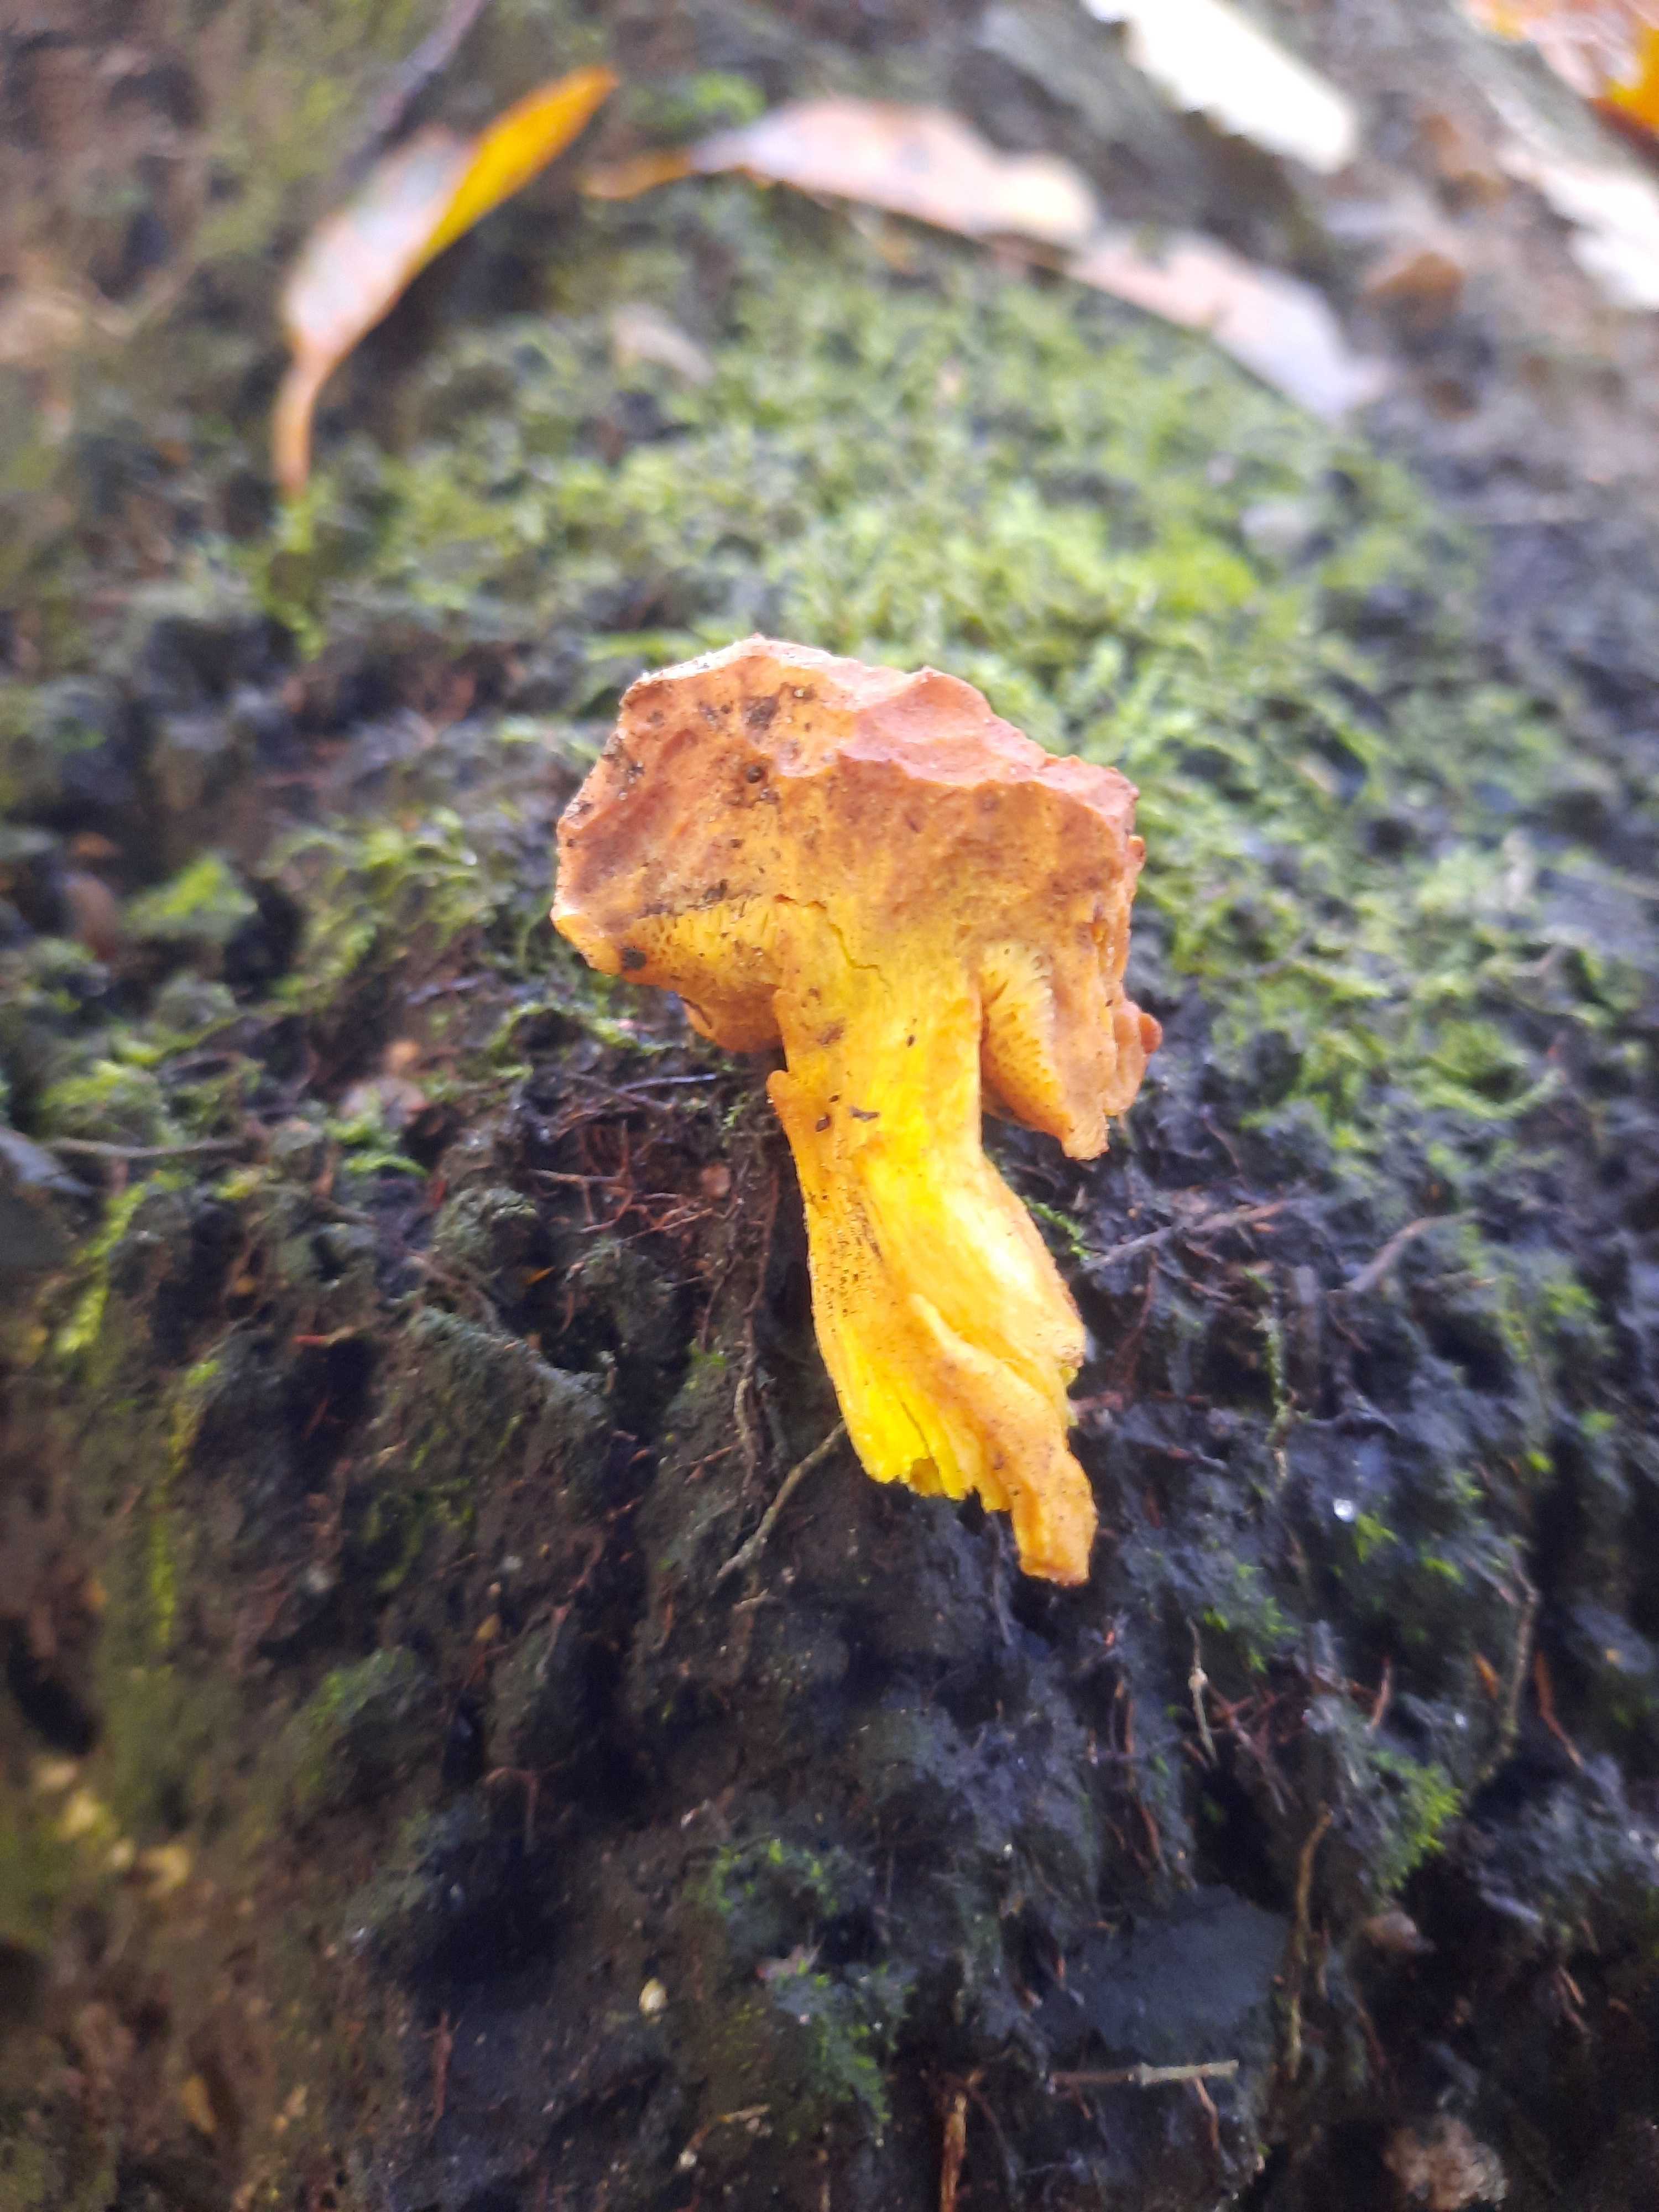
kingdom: Fungi
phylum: Basidiomycota
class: Agaricomycetes
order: Boletales
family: Boletaceae
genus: Chalciporus
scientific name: Chalciporus piperatus
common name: peberrørhat
